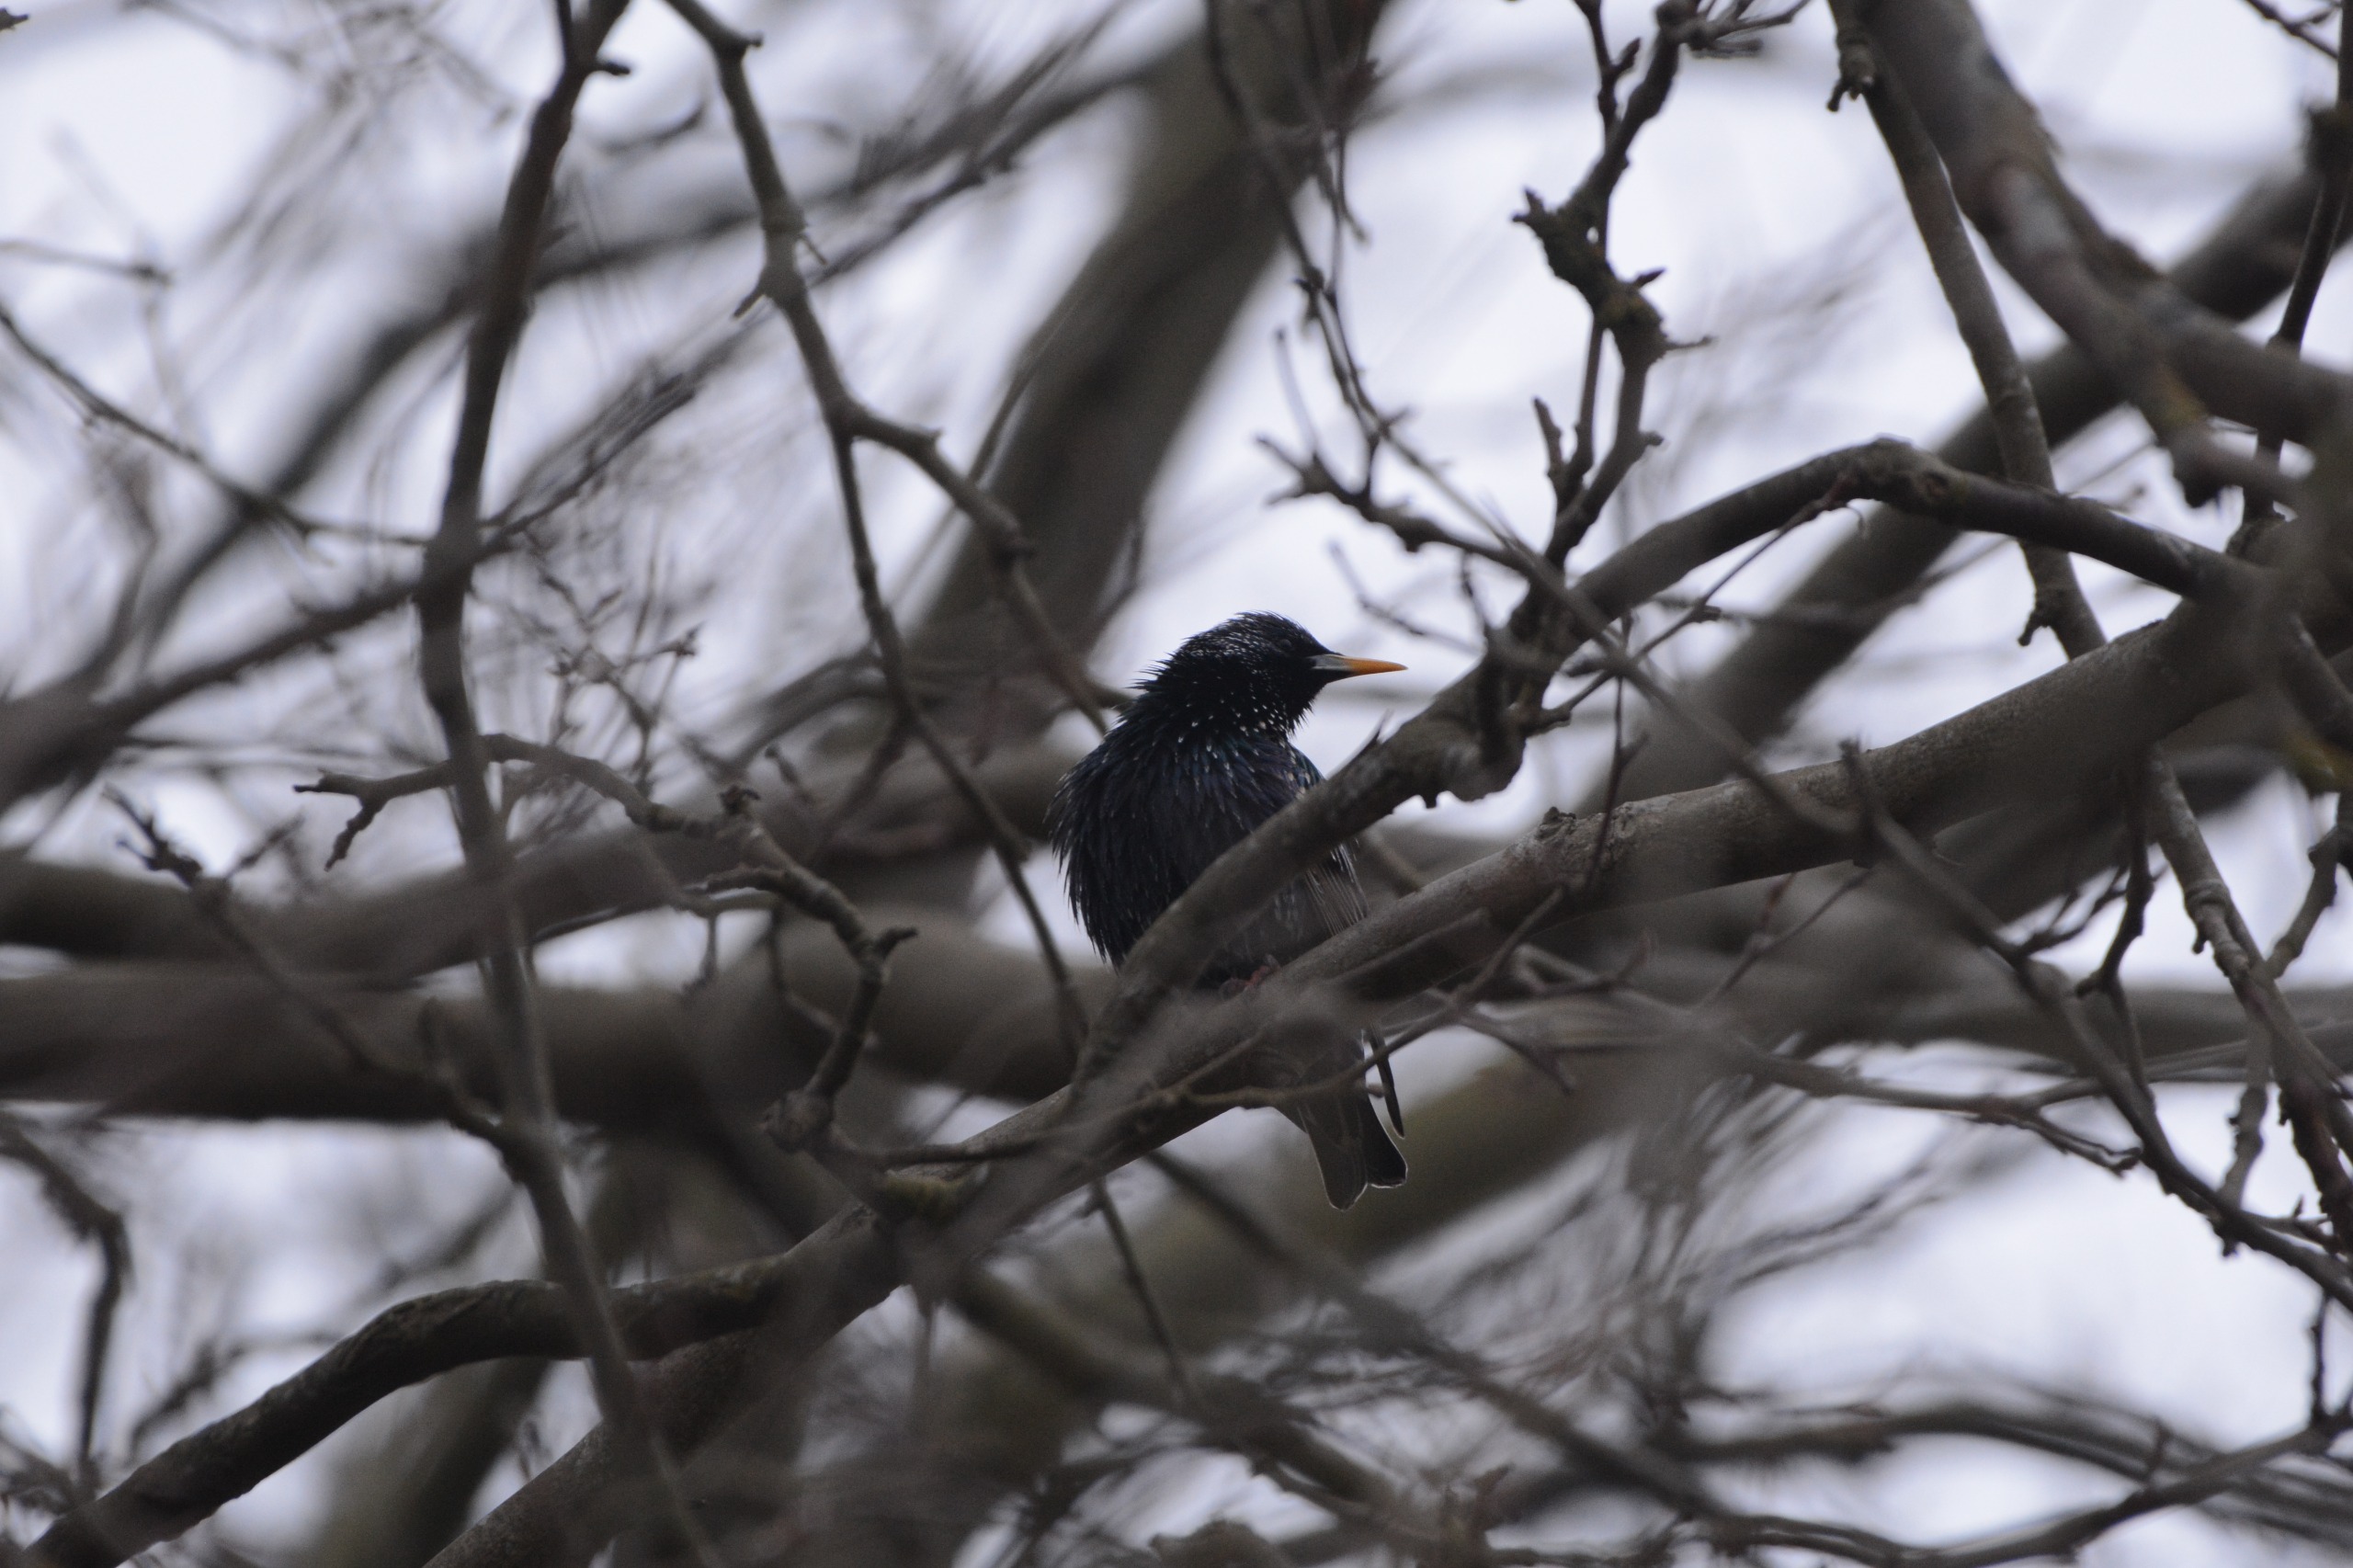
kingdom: Animalia
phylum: Chordata
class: Aves
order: Passeriformes
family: Sturnidae
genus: Sturnus
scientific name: Sturnus vulgaris
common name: Stær
